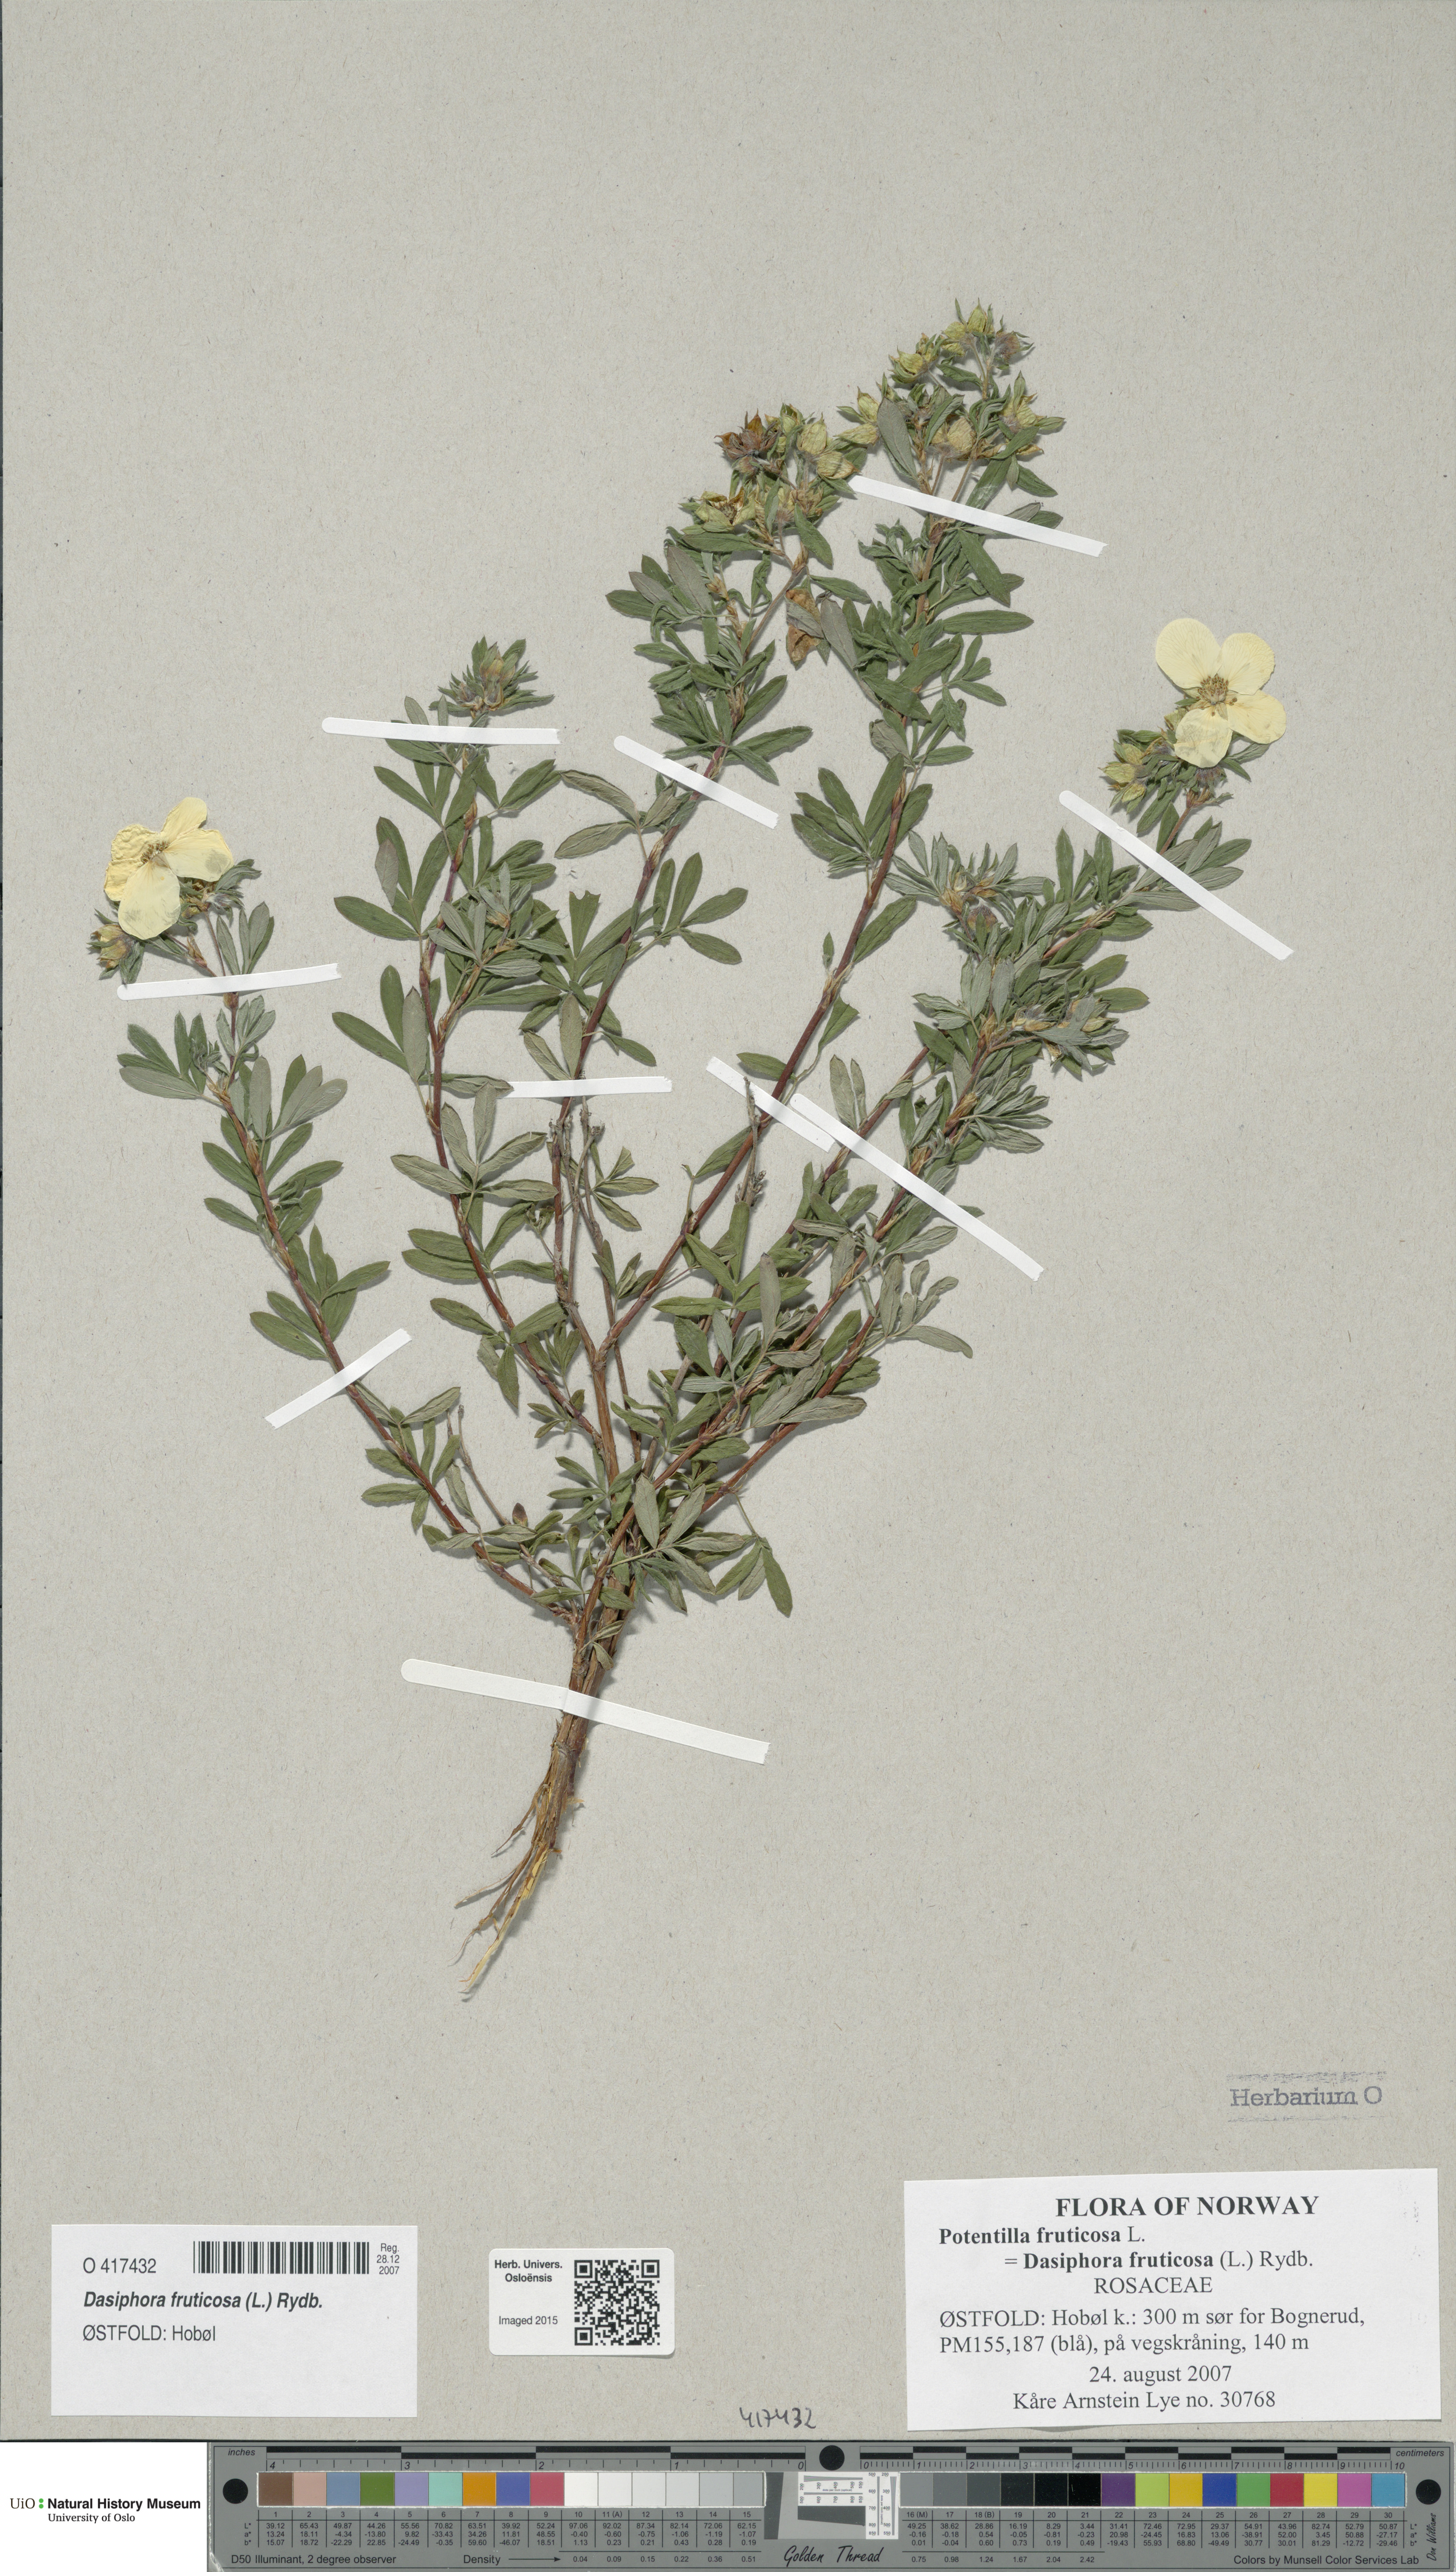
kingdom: Plantae
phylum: Tracheophyta
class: Magnoliopsida
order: Rosales
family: Rosaceae
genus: Dasiphora
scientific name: Dasiphora fruticosa
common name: Shrubby cinquefoil
